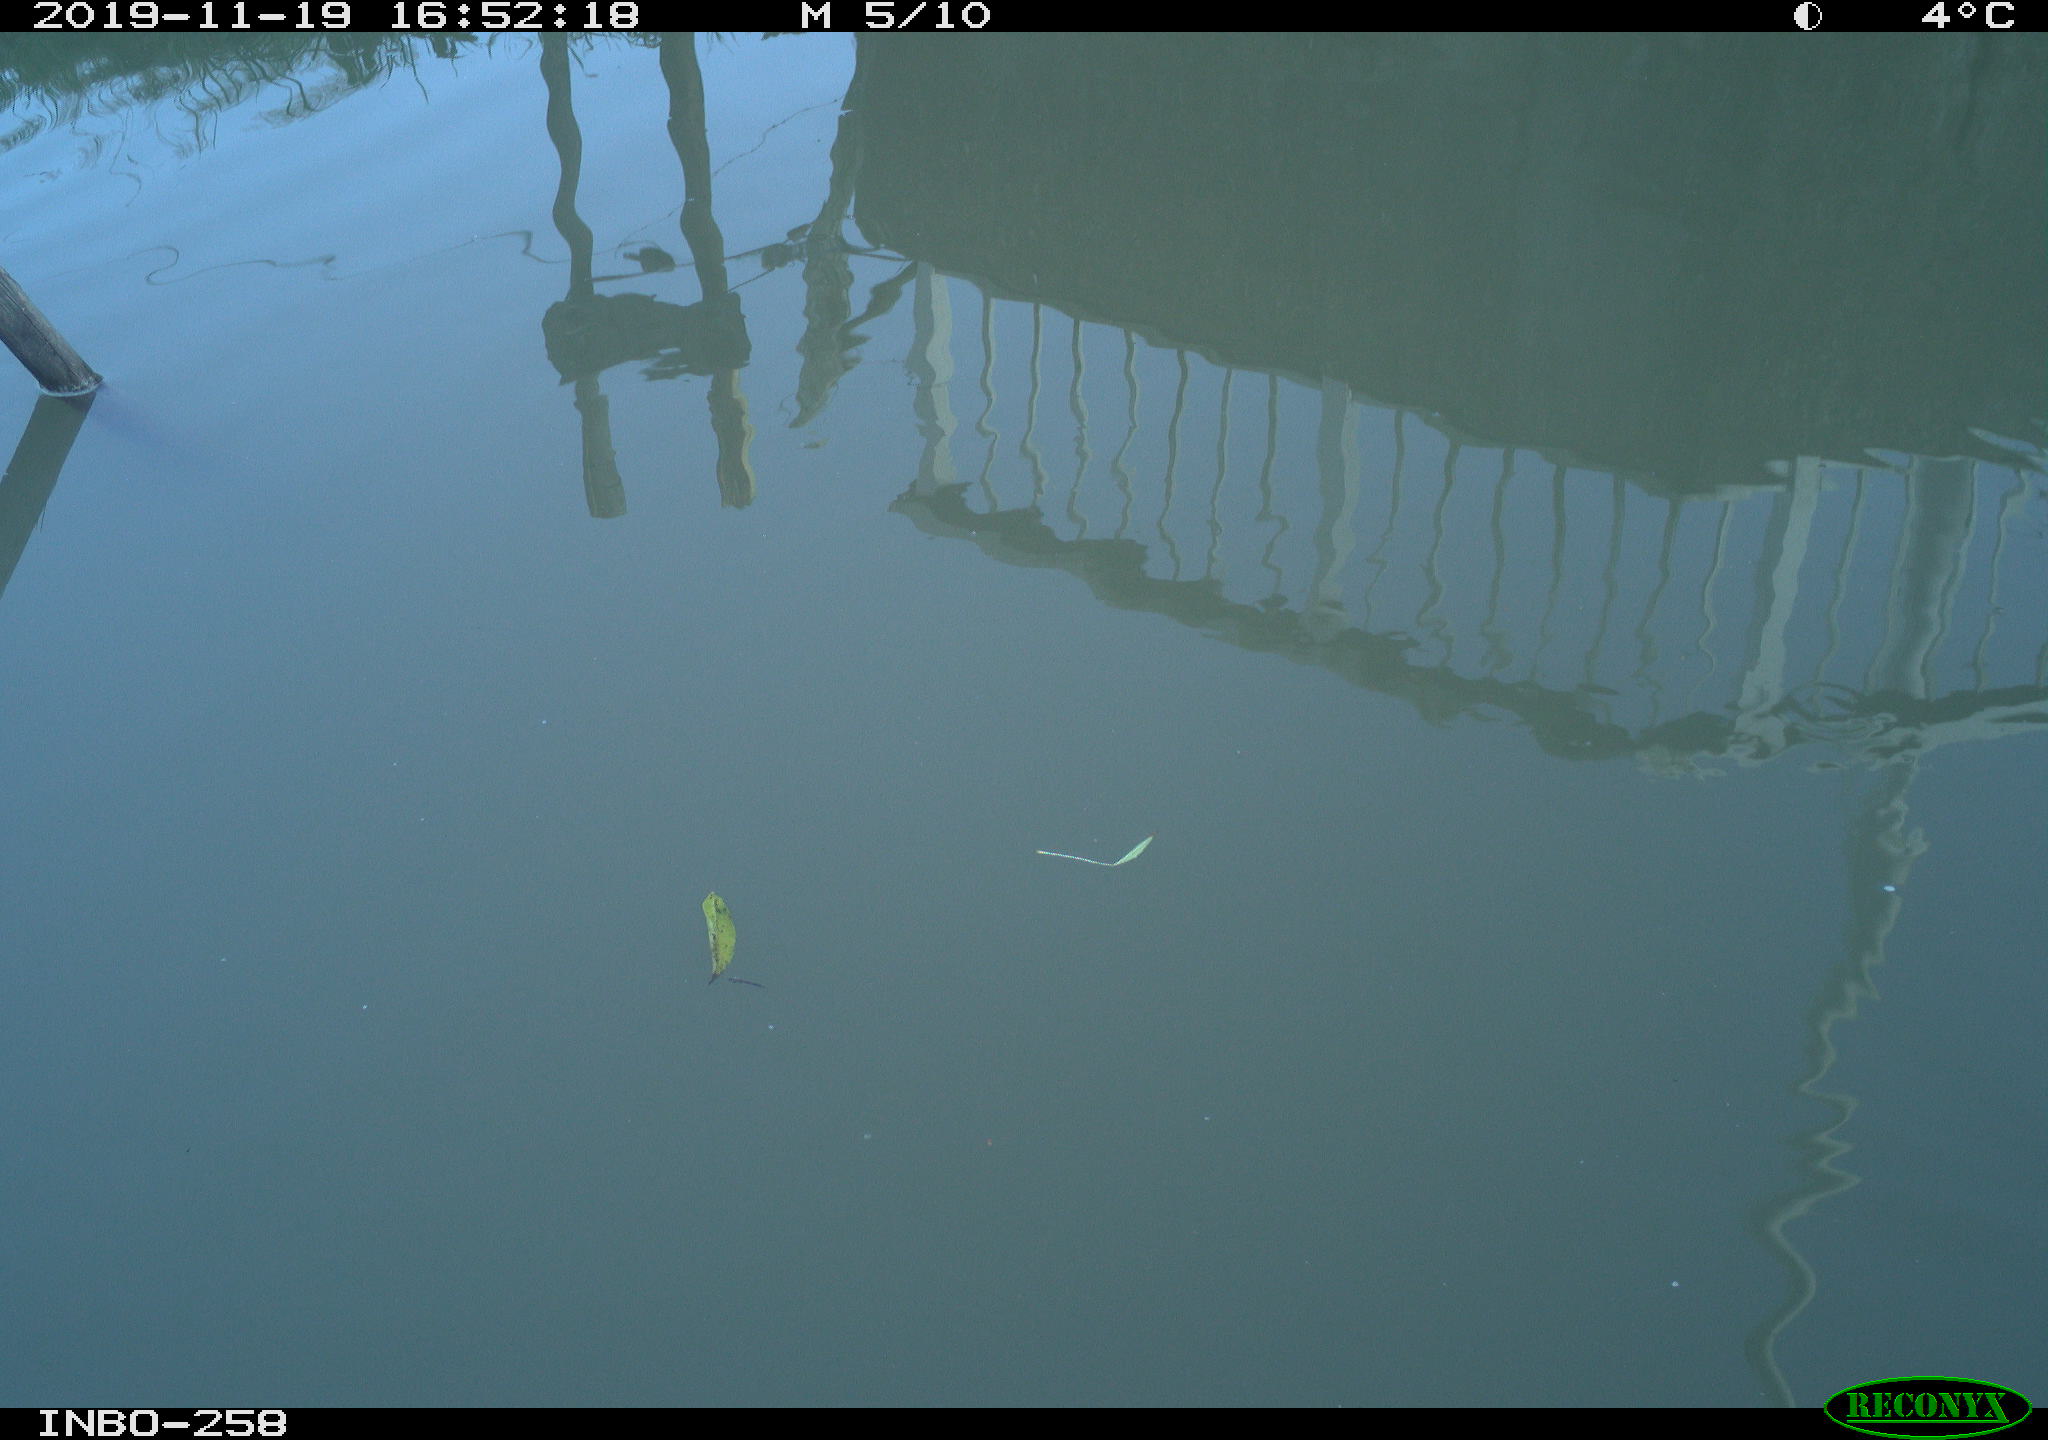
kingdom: Animalia
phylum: Chordata
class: Aves
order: Gruiformes
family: Rallidae
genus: Gallinula
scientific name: Gallinula chloropus
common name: Common moorhen
